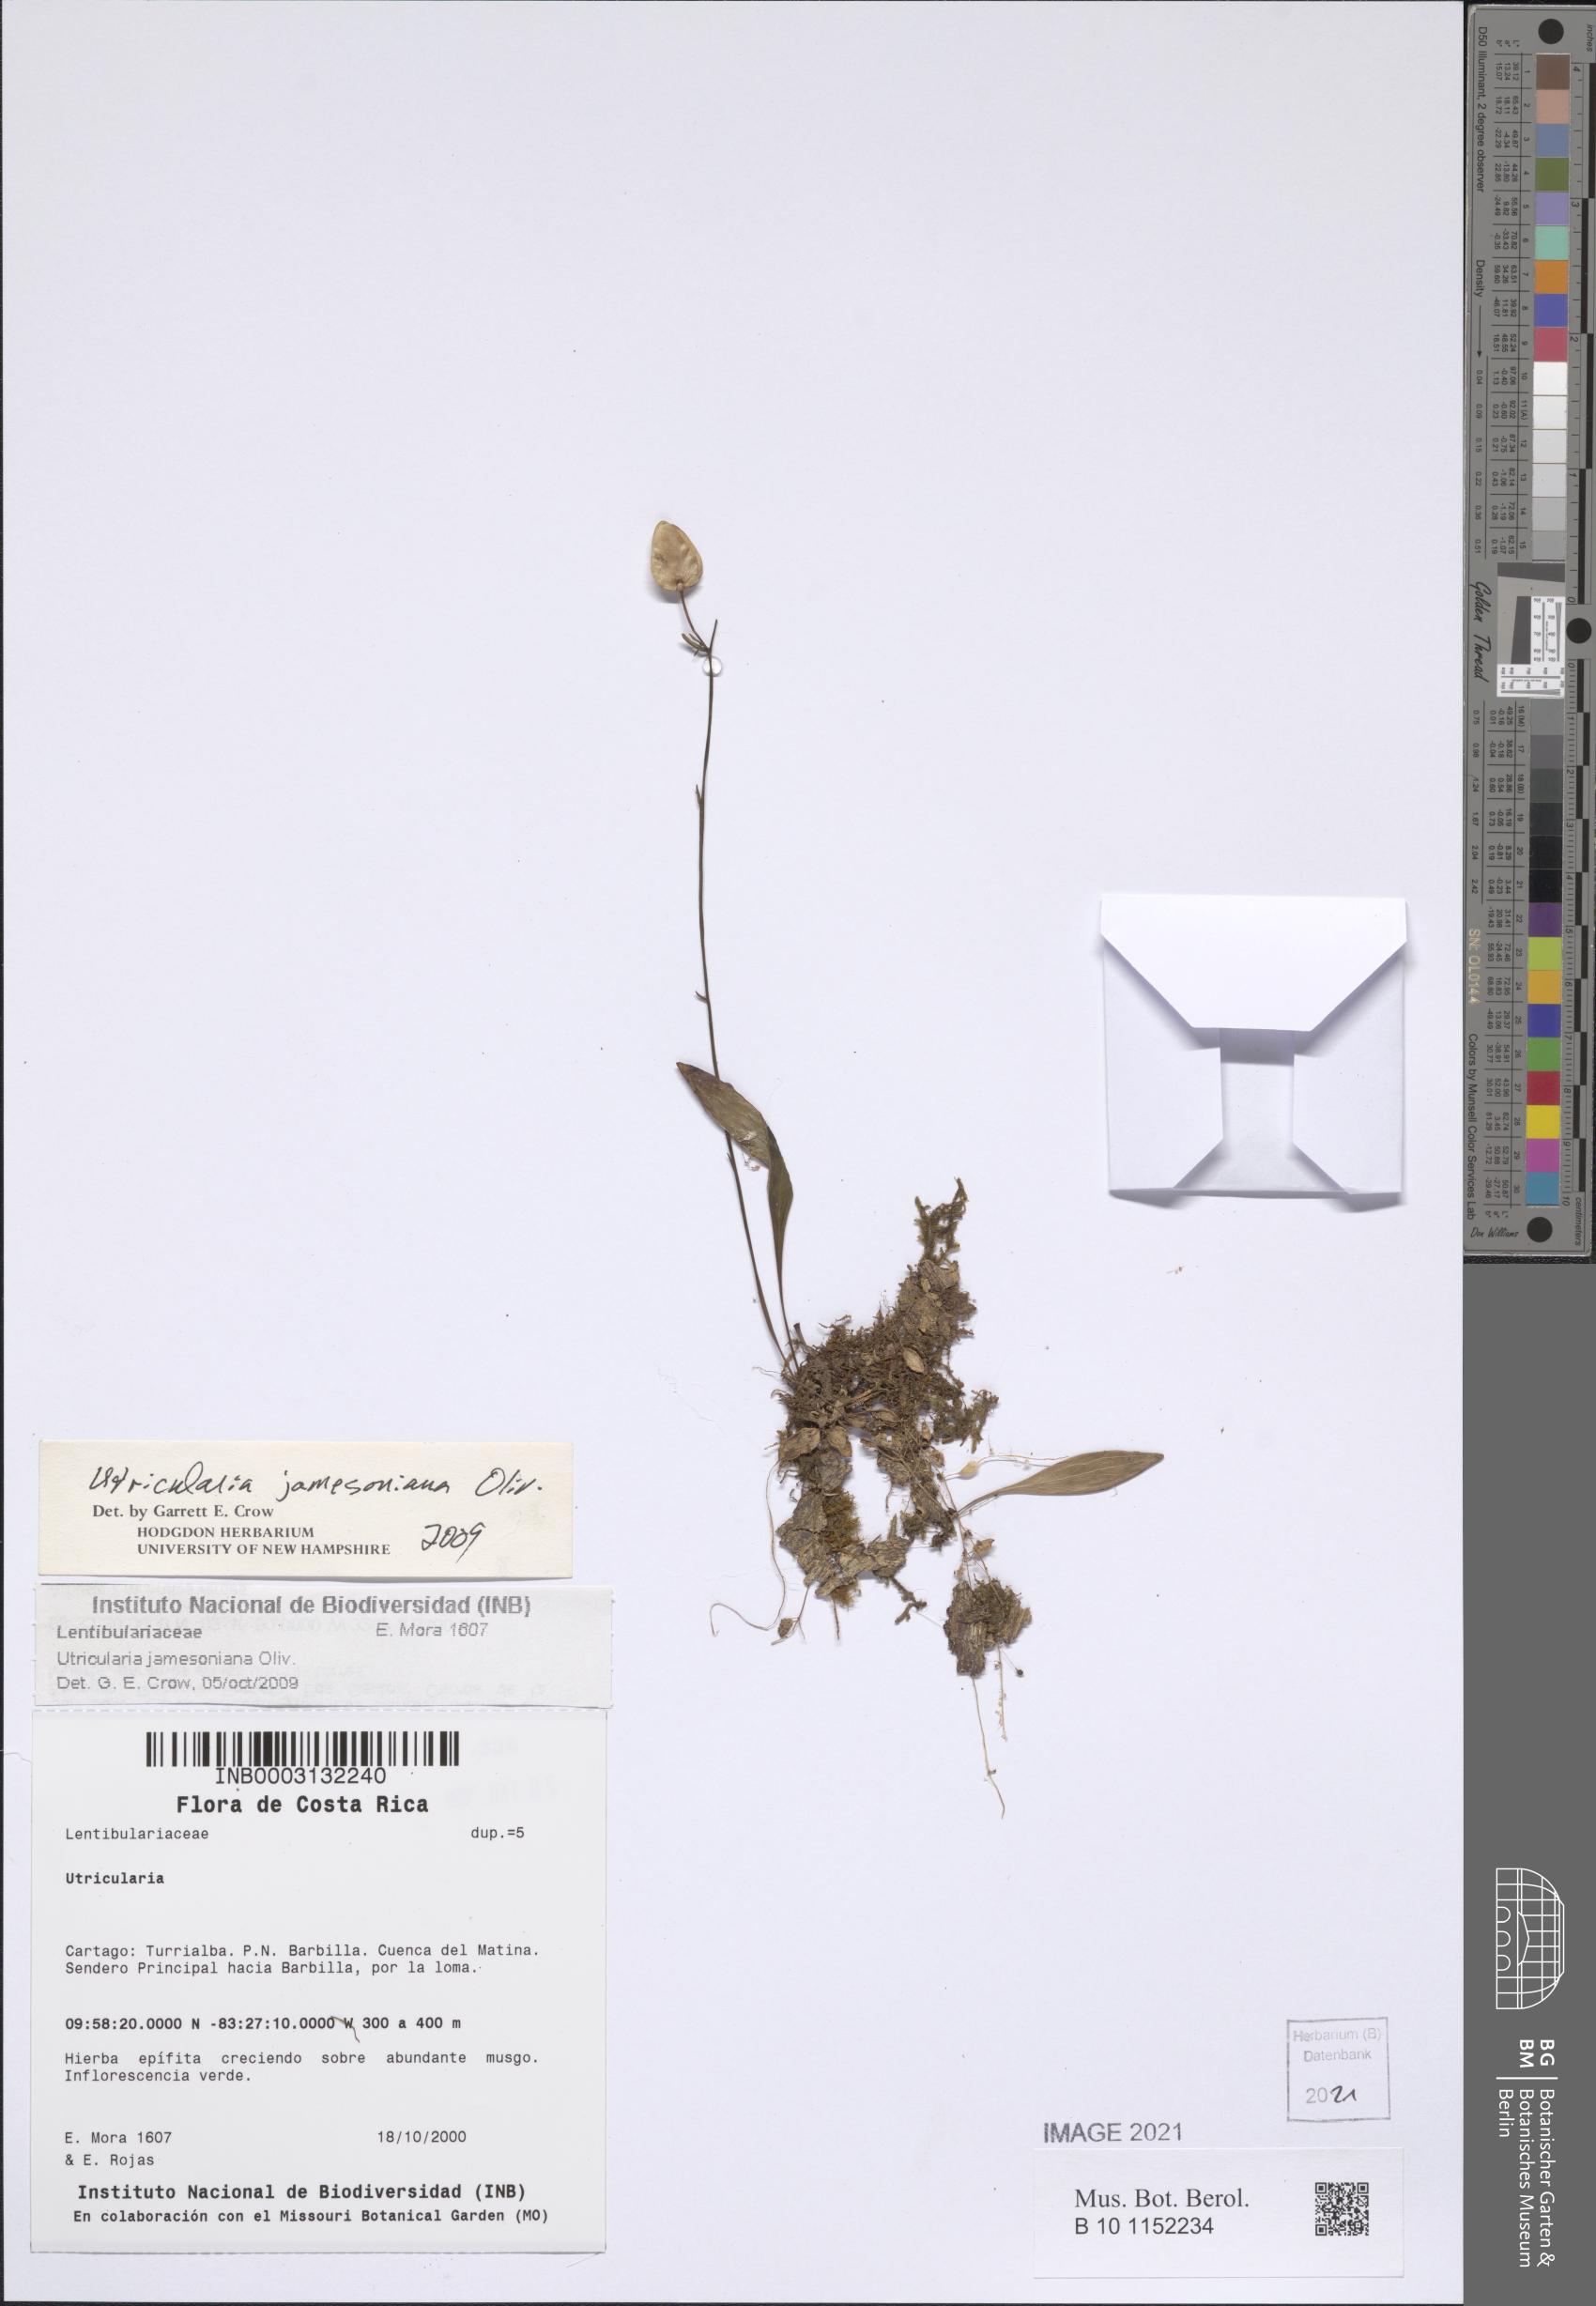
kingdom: Plantae
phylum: Tracheophyta
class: Magnoliopsida
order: Lamiales
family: Lentibulariaceae
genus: Utricularia
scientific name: Utricularia jamesoniana
